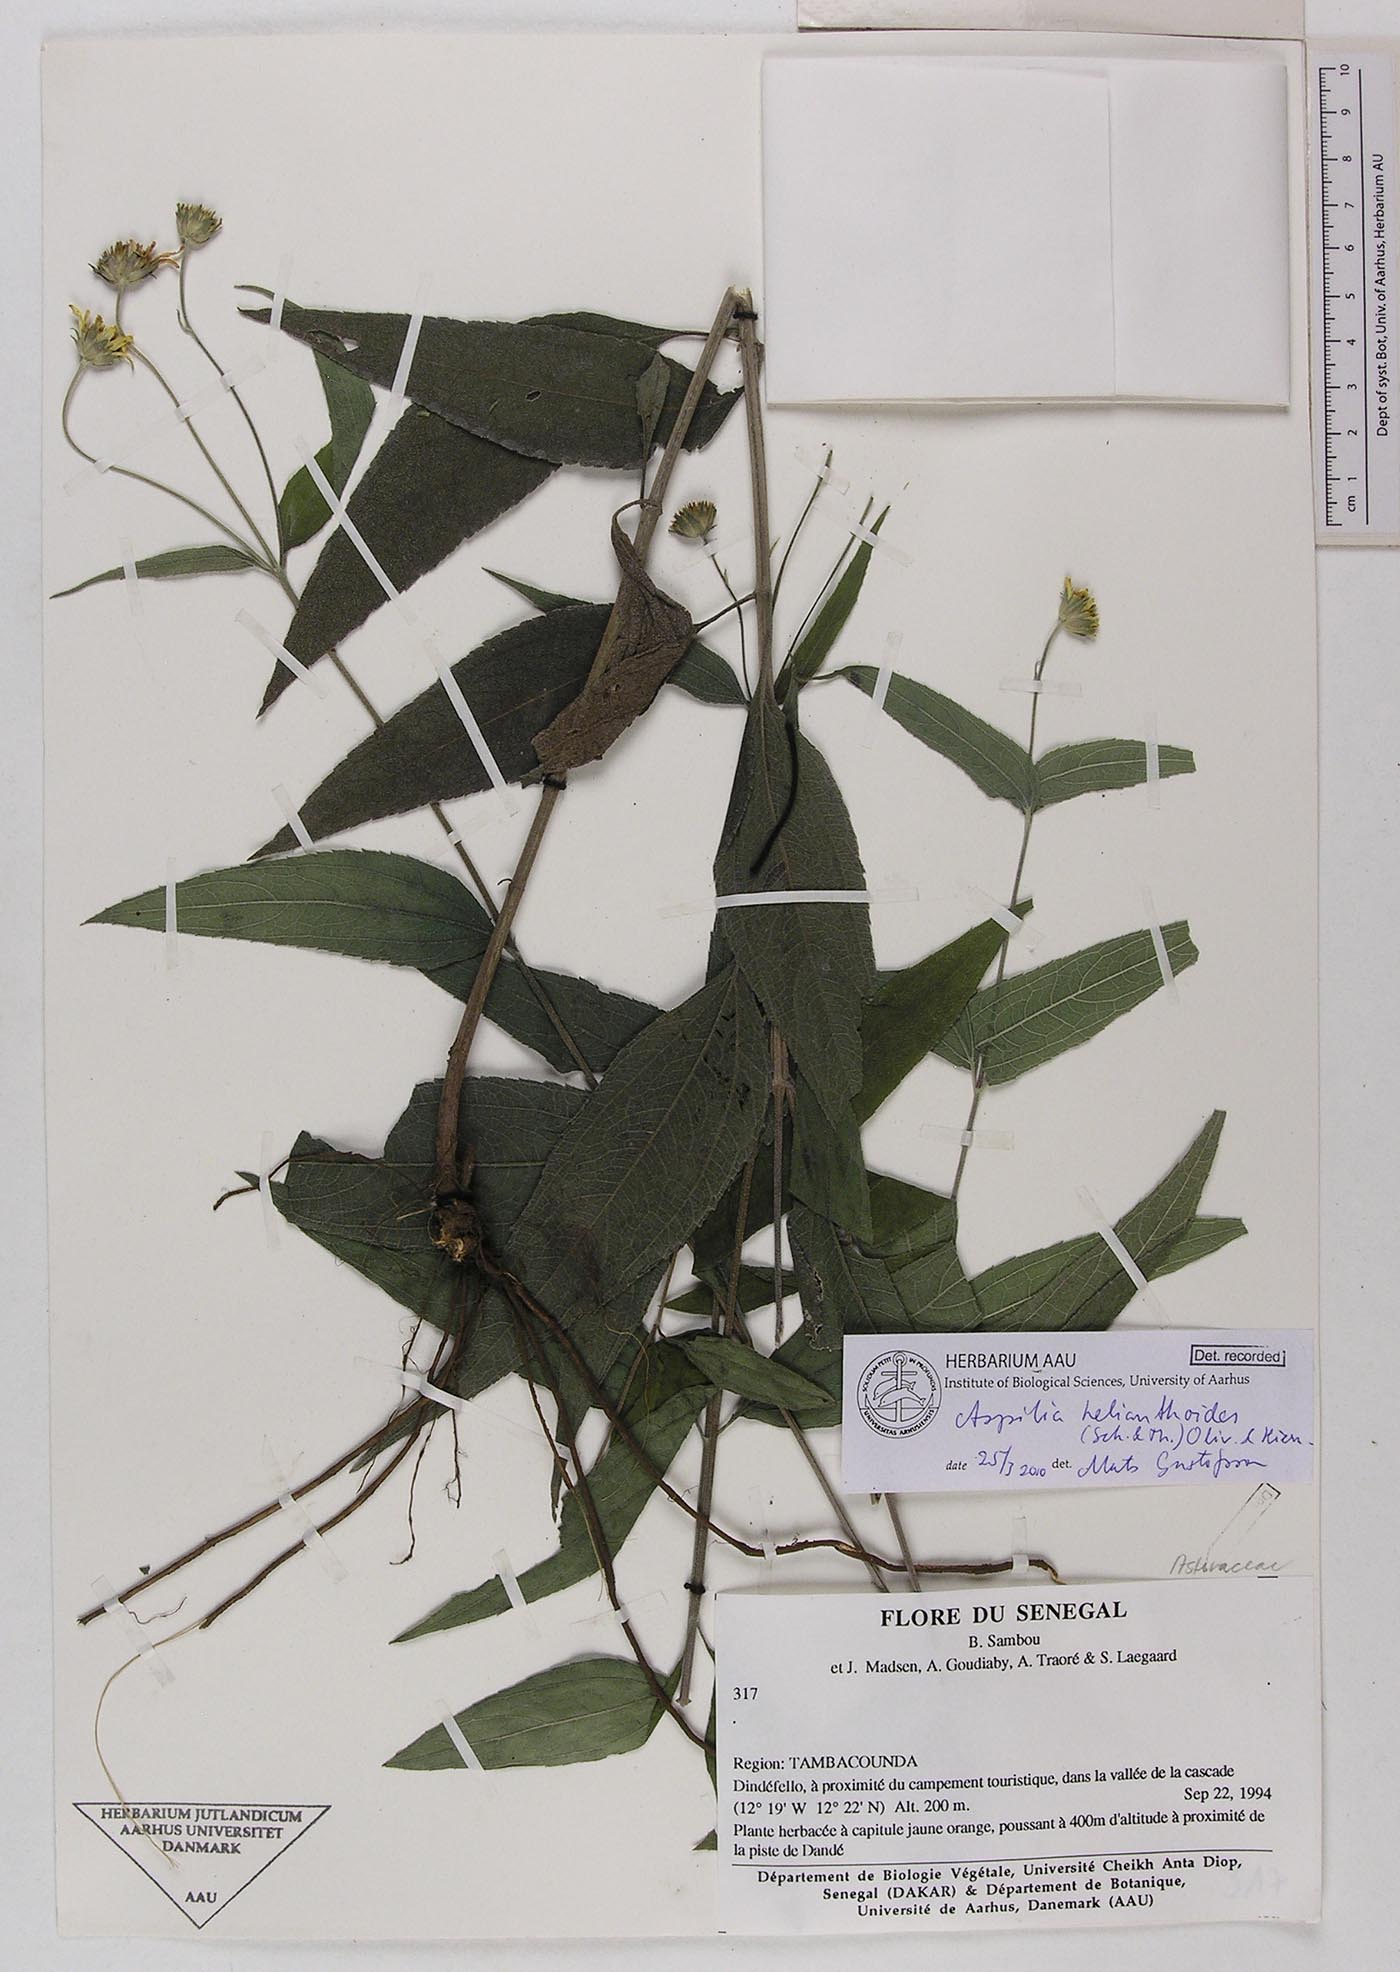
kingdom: Plantae
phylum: Tracheophyta
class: Magnoliopsida
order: Asterales
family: Asteraceae
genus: Aspilia
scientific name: Aspilia helianthoides
